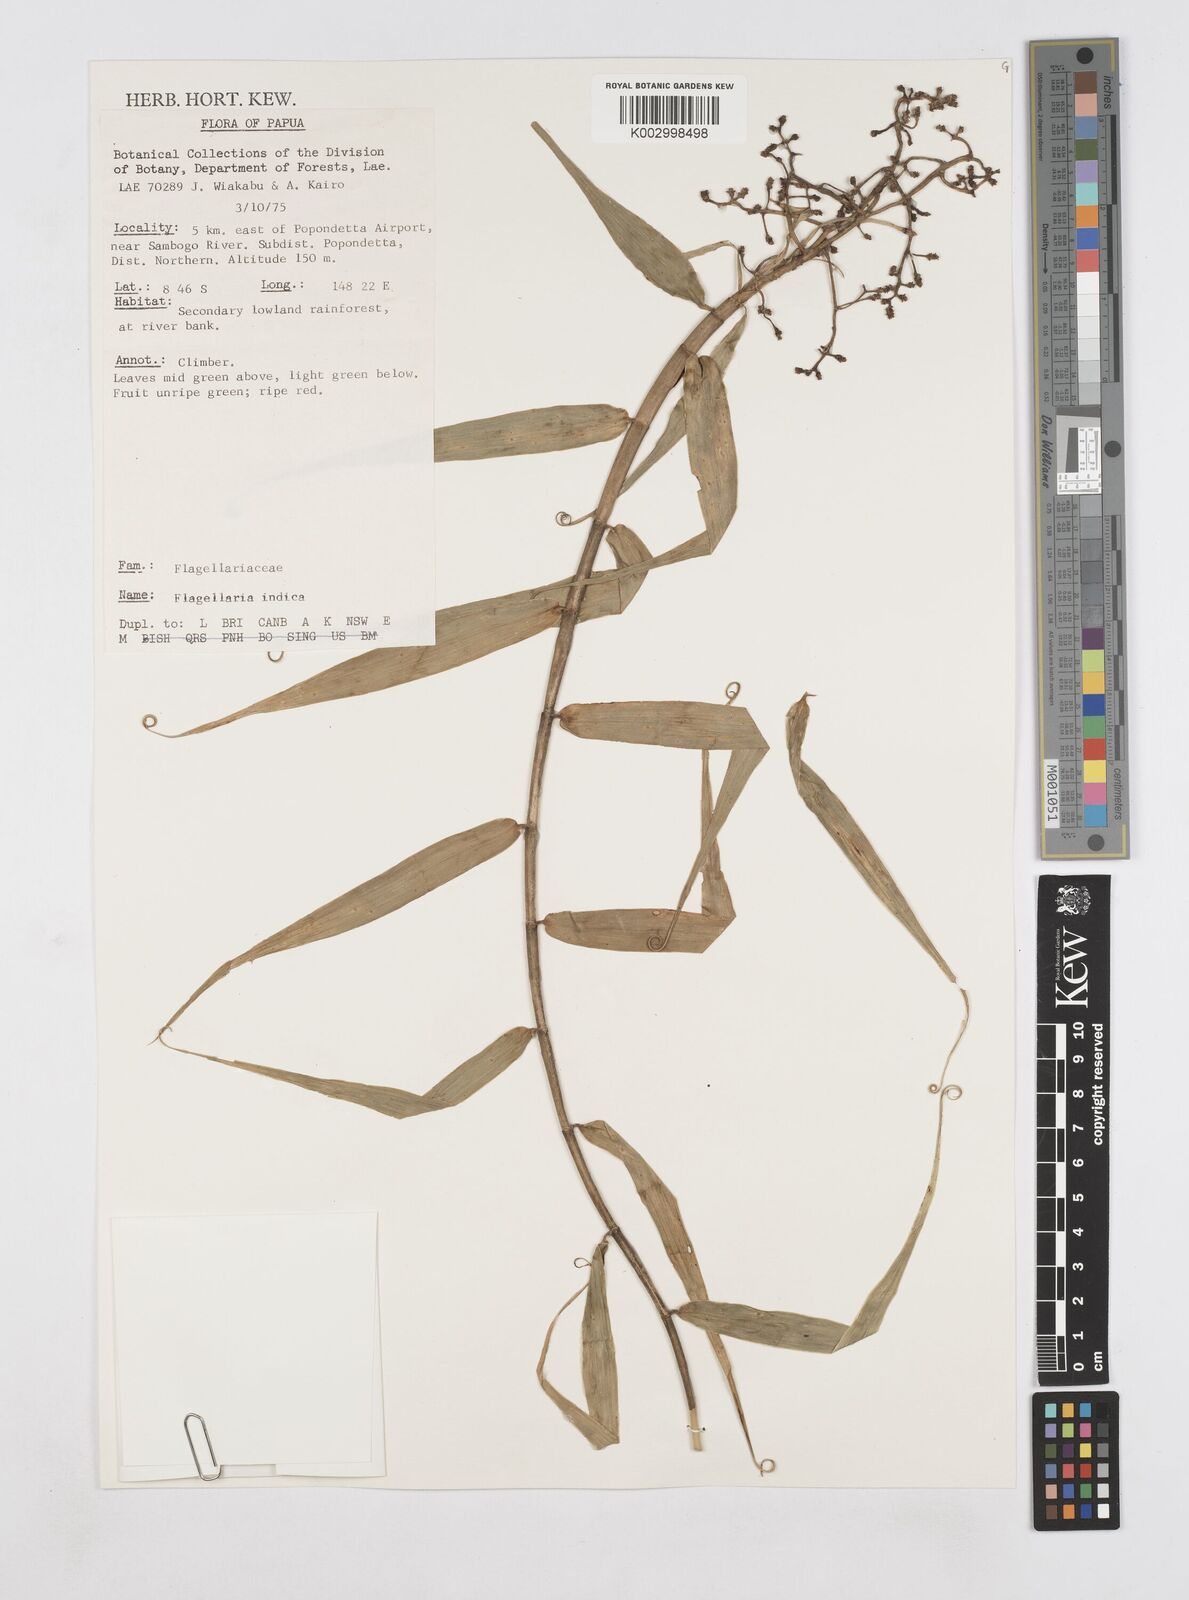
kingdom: Plantae
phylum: Tracheophyta
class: Liliopsida
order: Poales
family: Flagellariaceae
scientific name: Flagellariaceae
